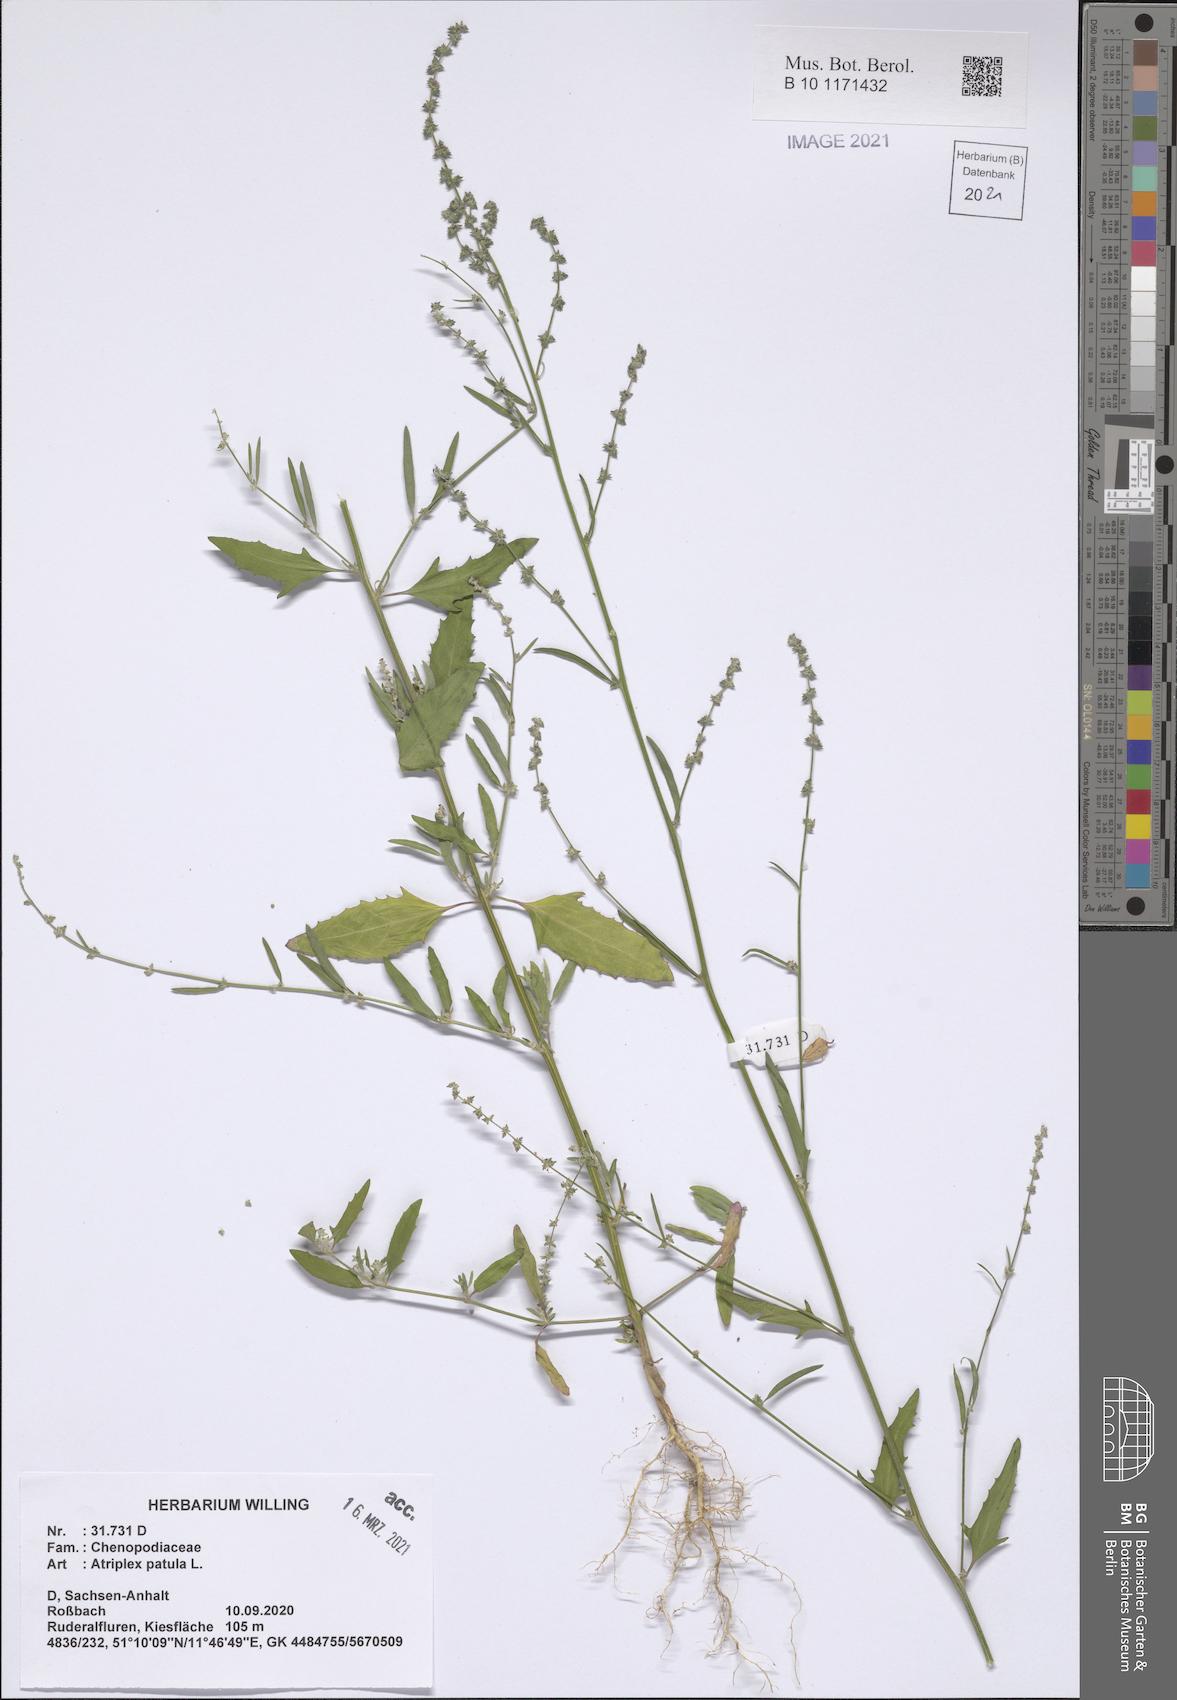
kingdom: Plantae
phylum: Tracheophyta
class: Magnoliopsida
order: Caryophyllales
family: Amaranthaceae
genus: Atriplex
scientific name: Atriplex patula
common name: Common orache
